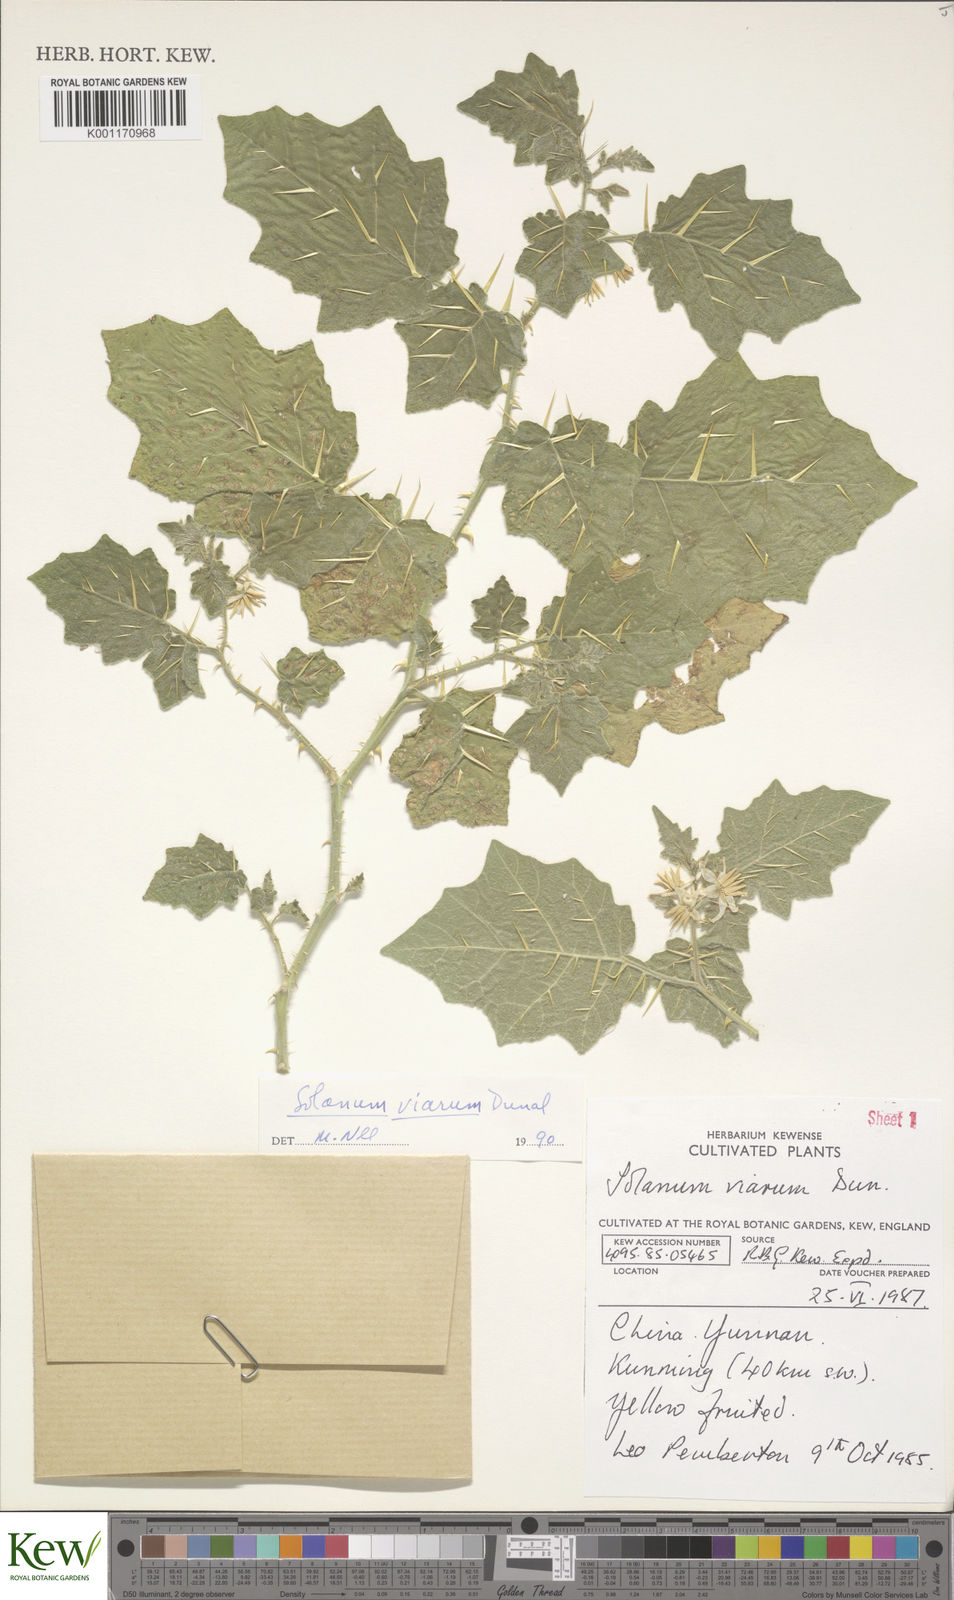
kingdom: Plantae
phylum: Tracheophyta
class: Magnoliopsida
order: Solanales
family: Solanaceae
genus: Solanum
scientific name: Solanum viarum
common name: Tropical soda apple
